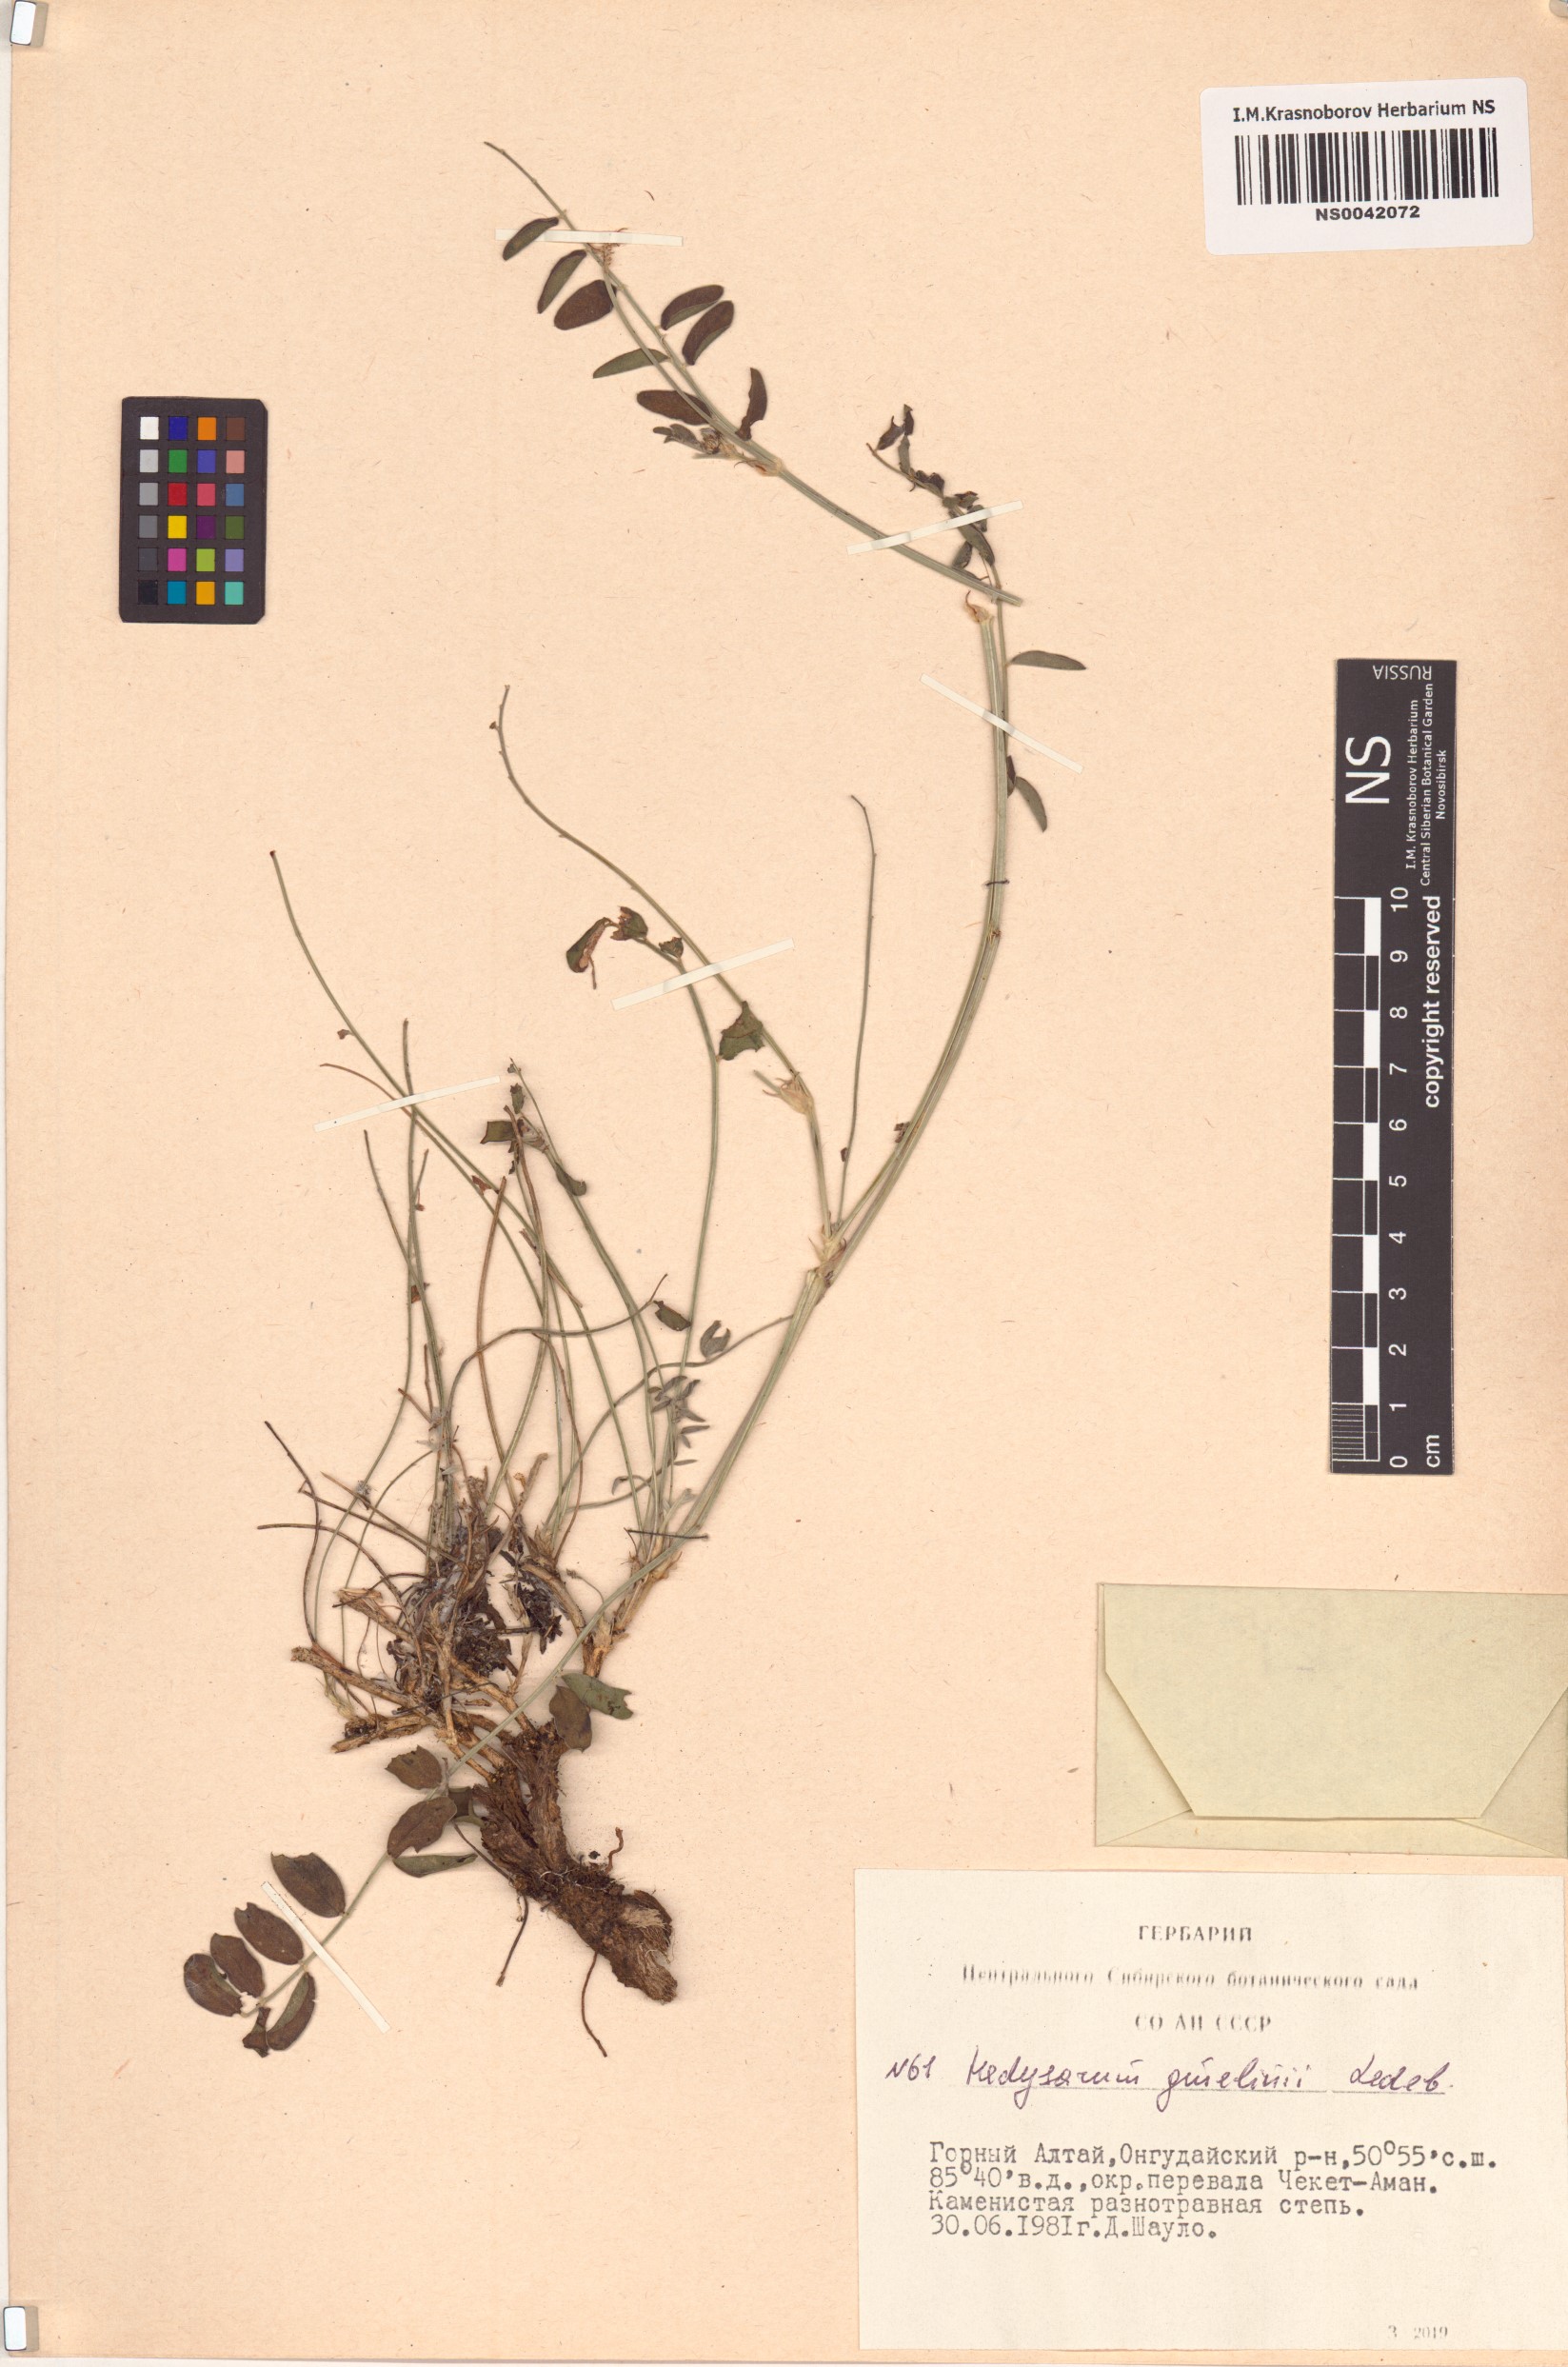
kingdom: Plantae
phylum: Tracheophyta
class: Magnoliopsida
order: Fabales
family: Fabaceae
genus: Hedysarum
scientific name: Hedysarum gmelinii
